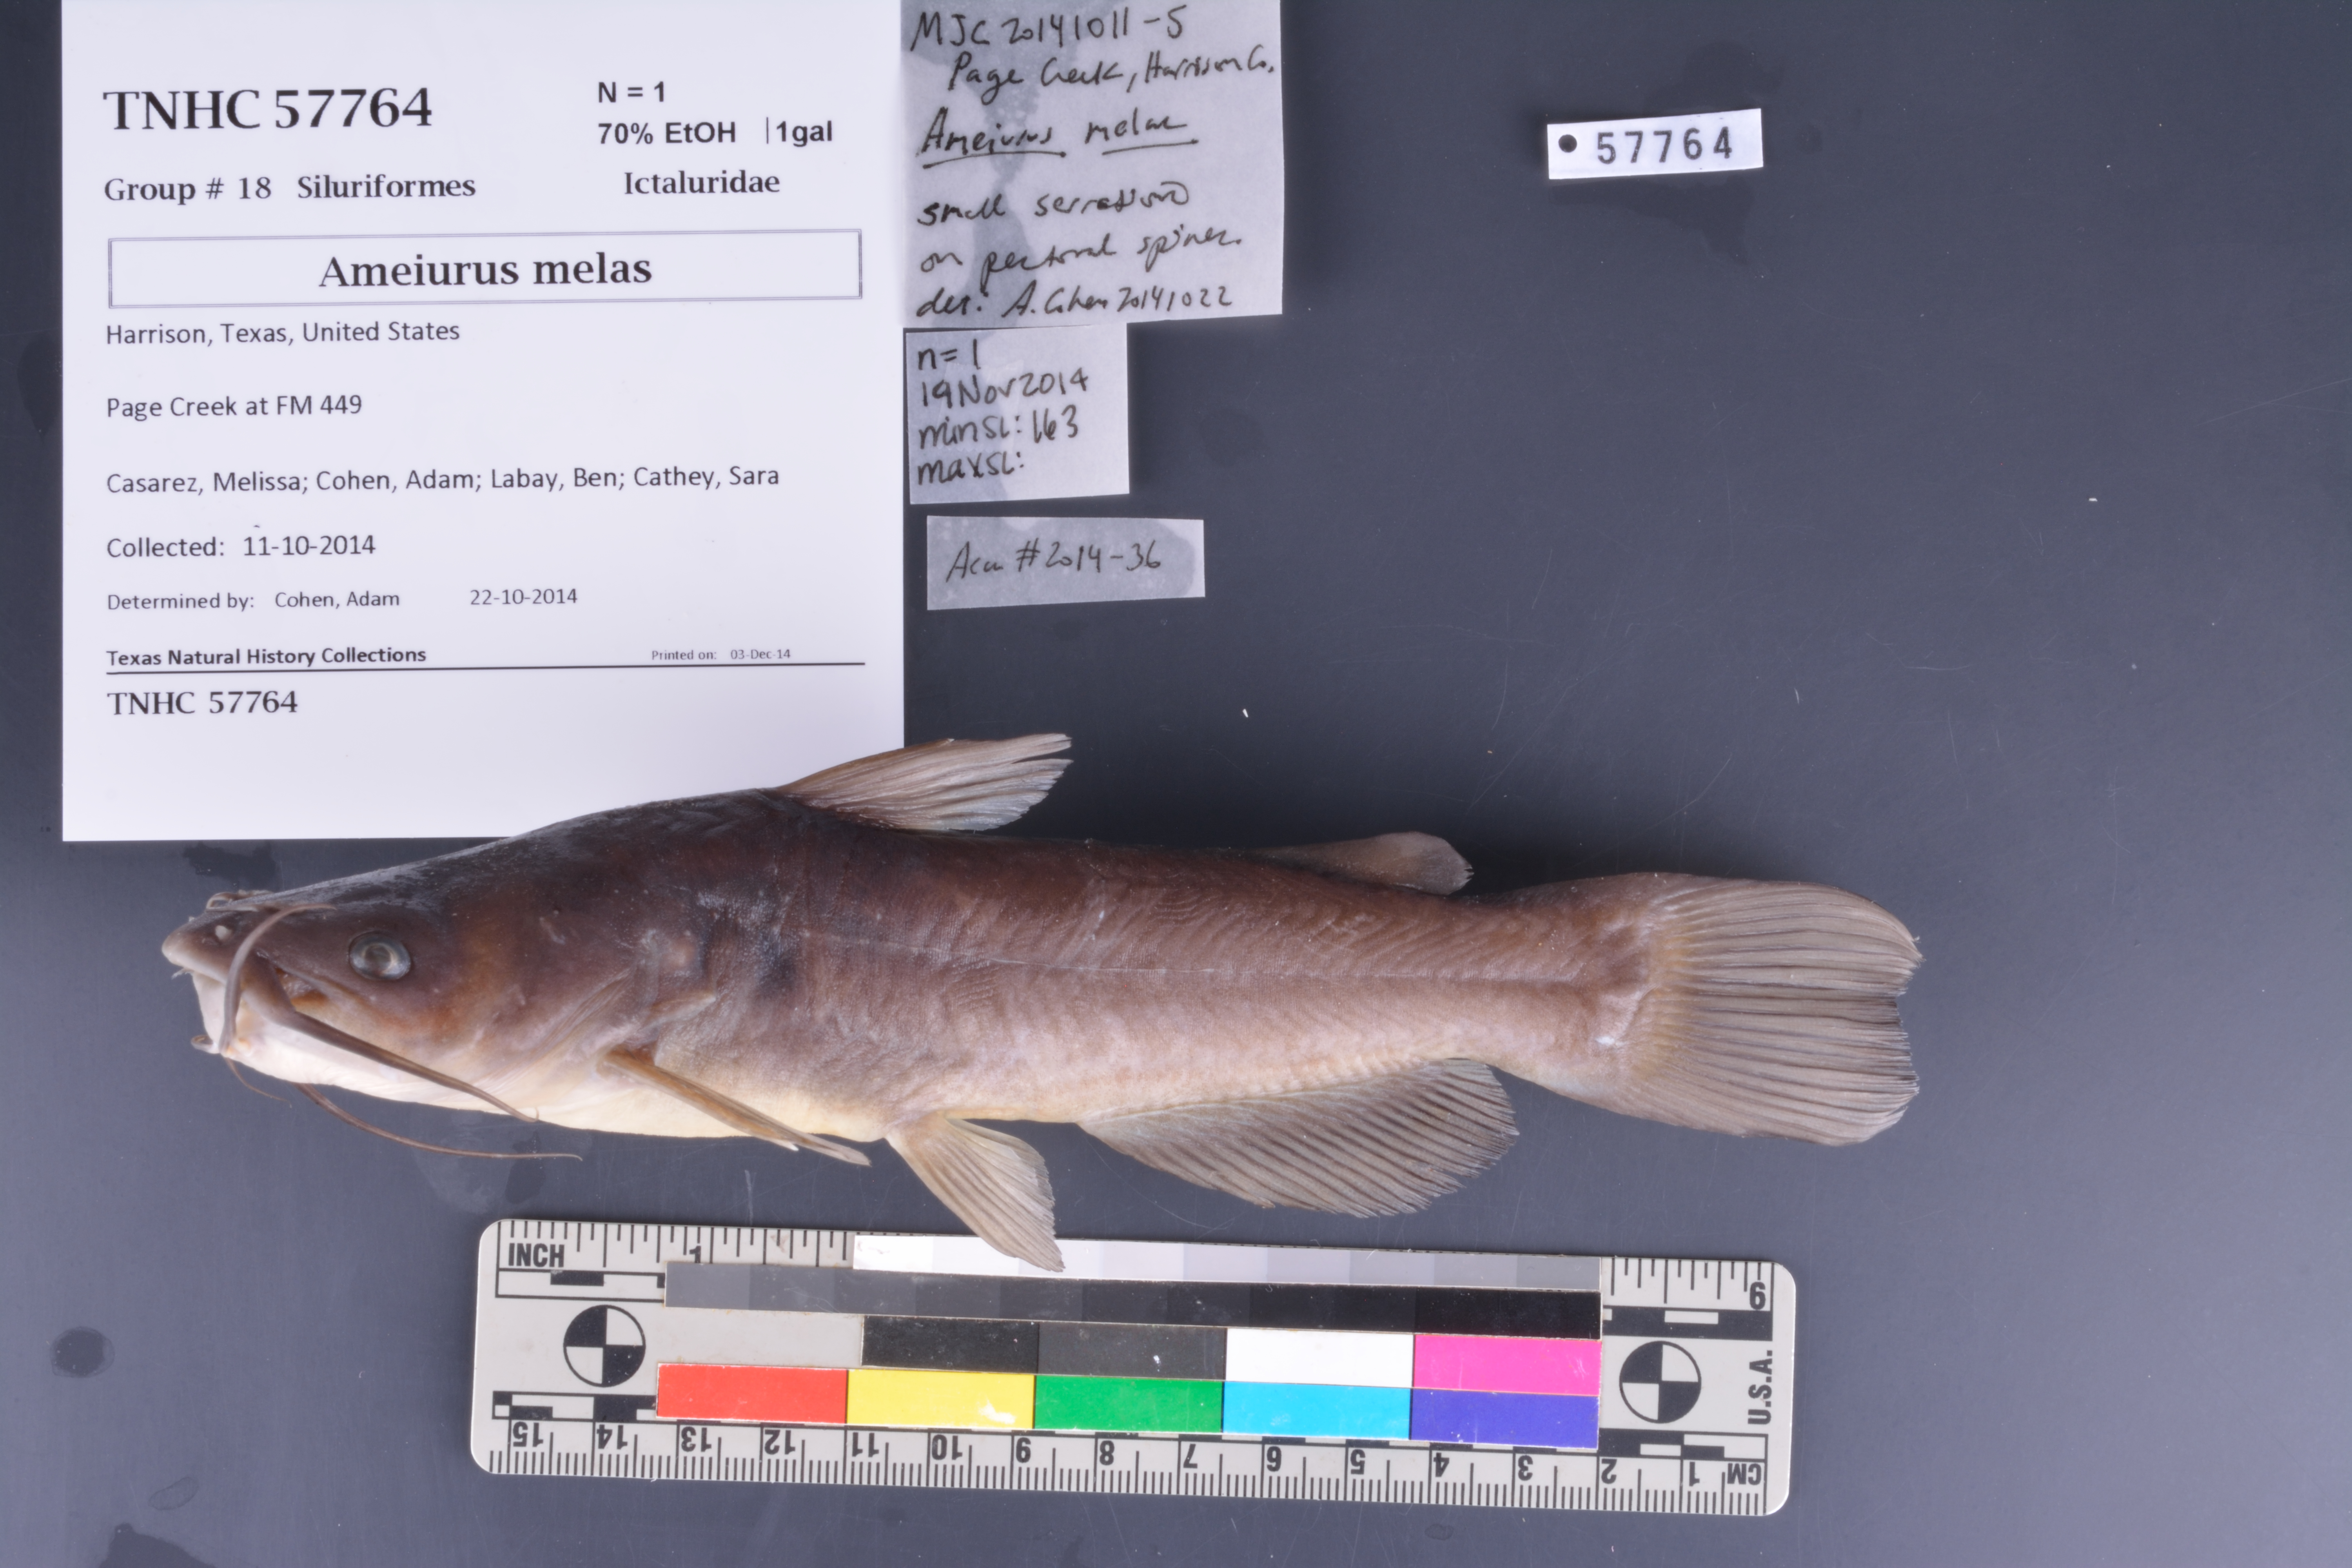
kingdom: Animalia
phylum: Chordata
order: Siluriformes
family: Ictaluridae
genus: Ameiurus
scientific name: Ameiurus melas
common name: Black bullhead
